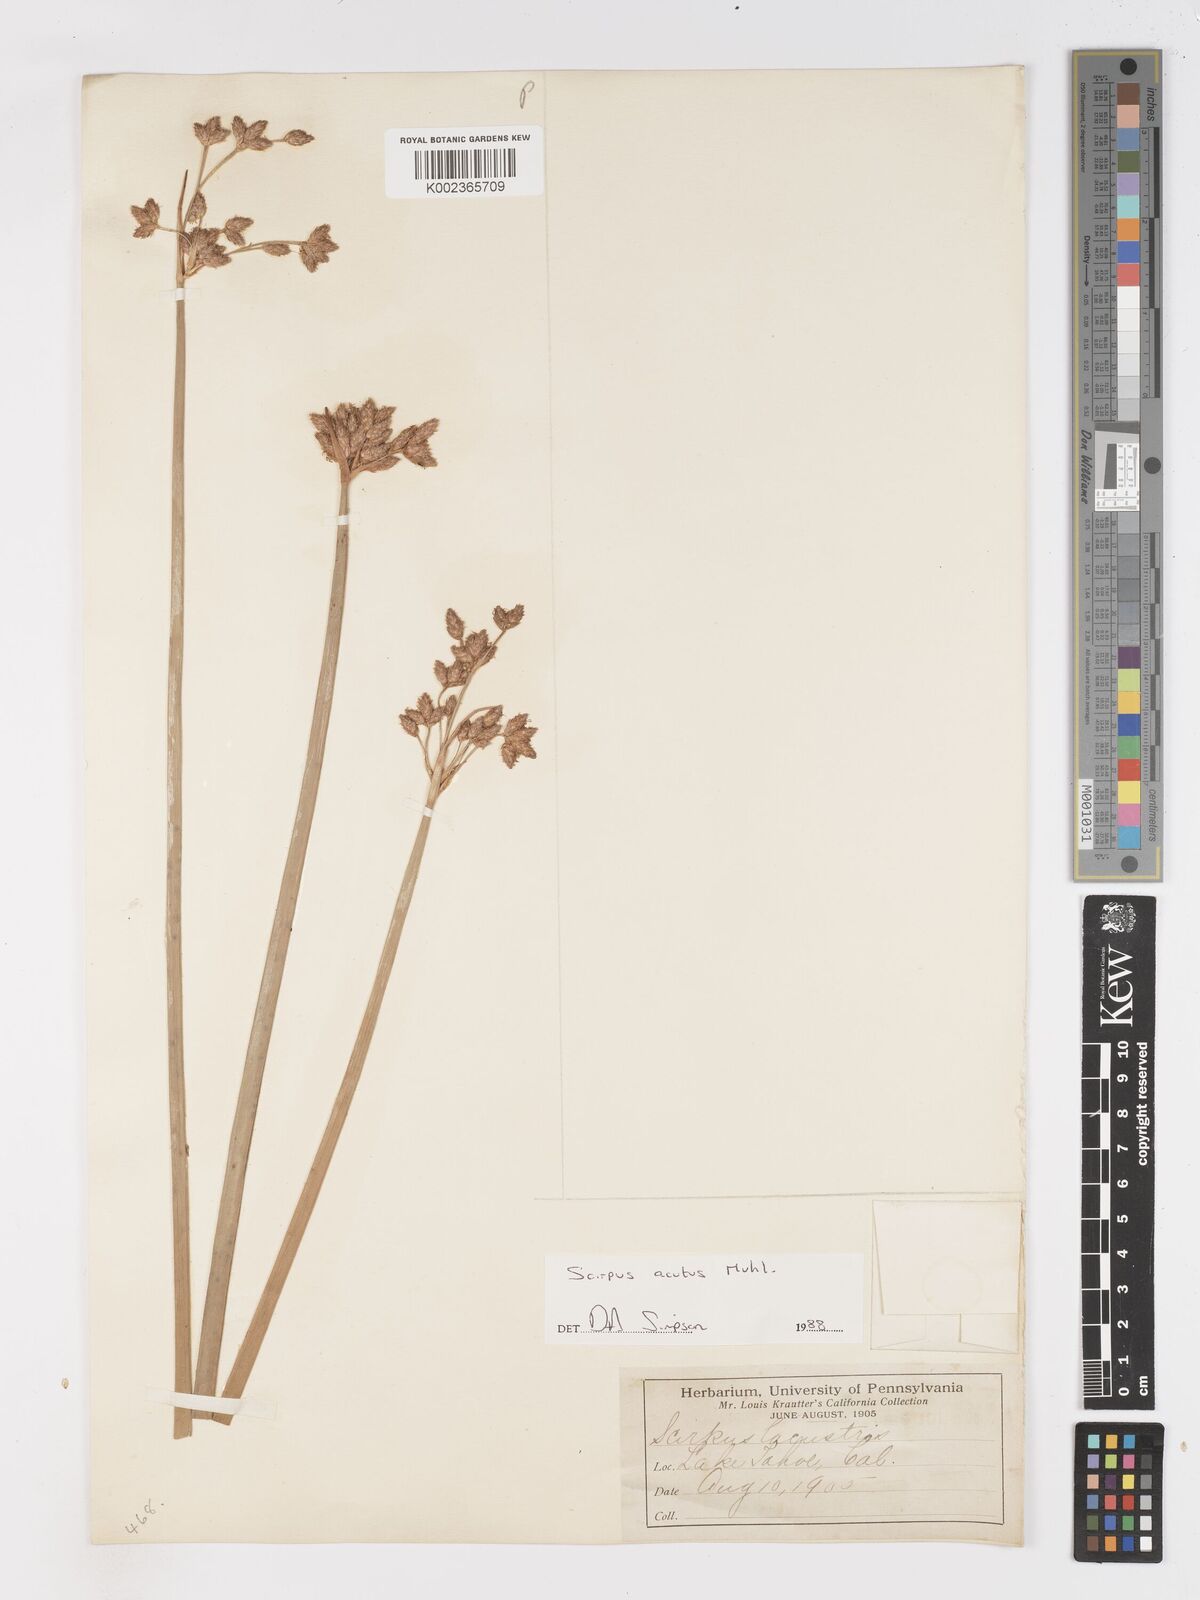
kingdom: Plantae
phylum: Tracheophyta
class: Liliopsida
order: Poales
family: Cyperaceae
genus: Schoenoplectus
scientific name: Schoenoplectus acutus
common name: Hardstem bulrush
